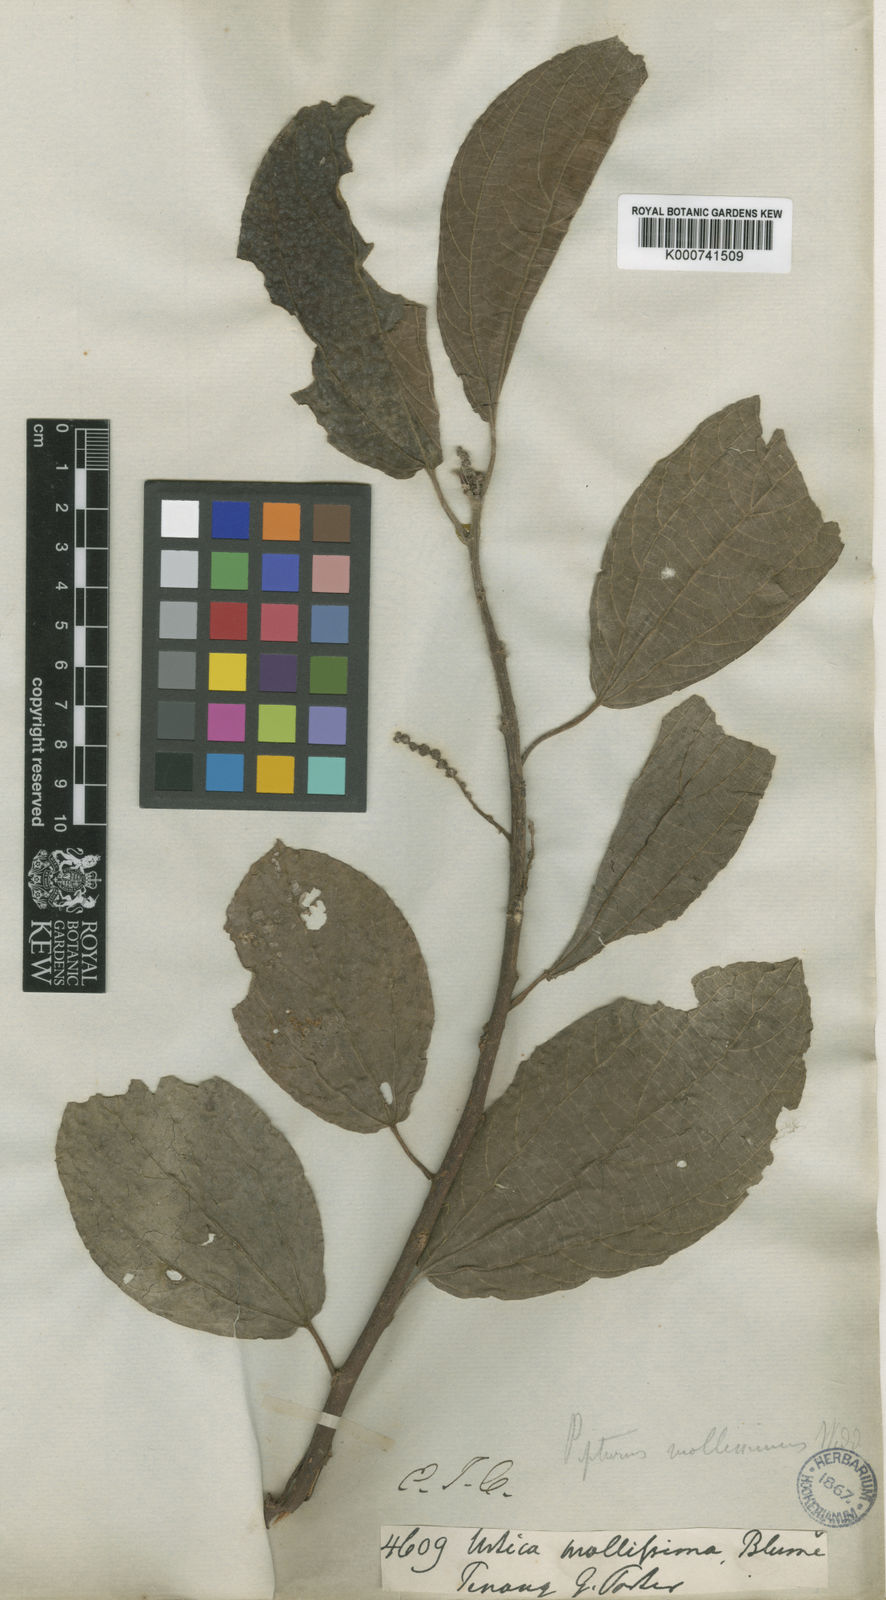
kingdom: Plantae
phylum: Tracheophyta
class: Magnoliopsida
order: Rosales
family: Urticaceae
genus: Nothocnide
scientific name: Nothocnide mollissima
